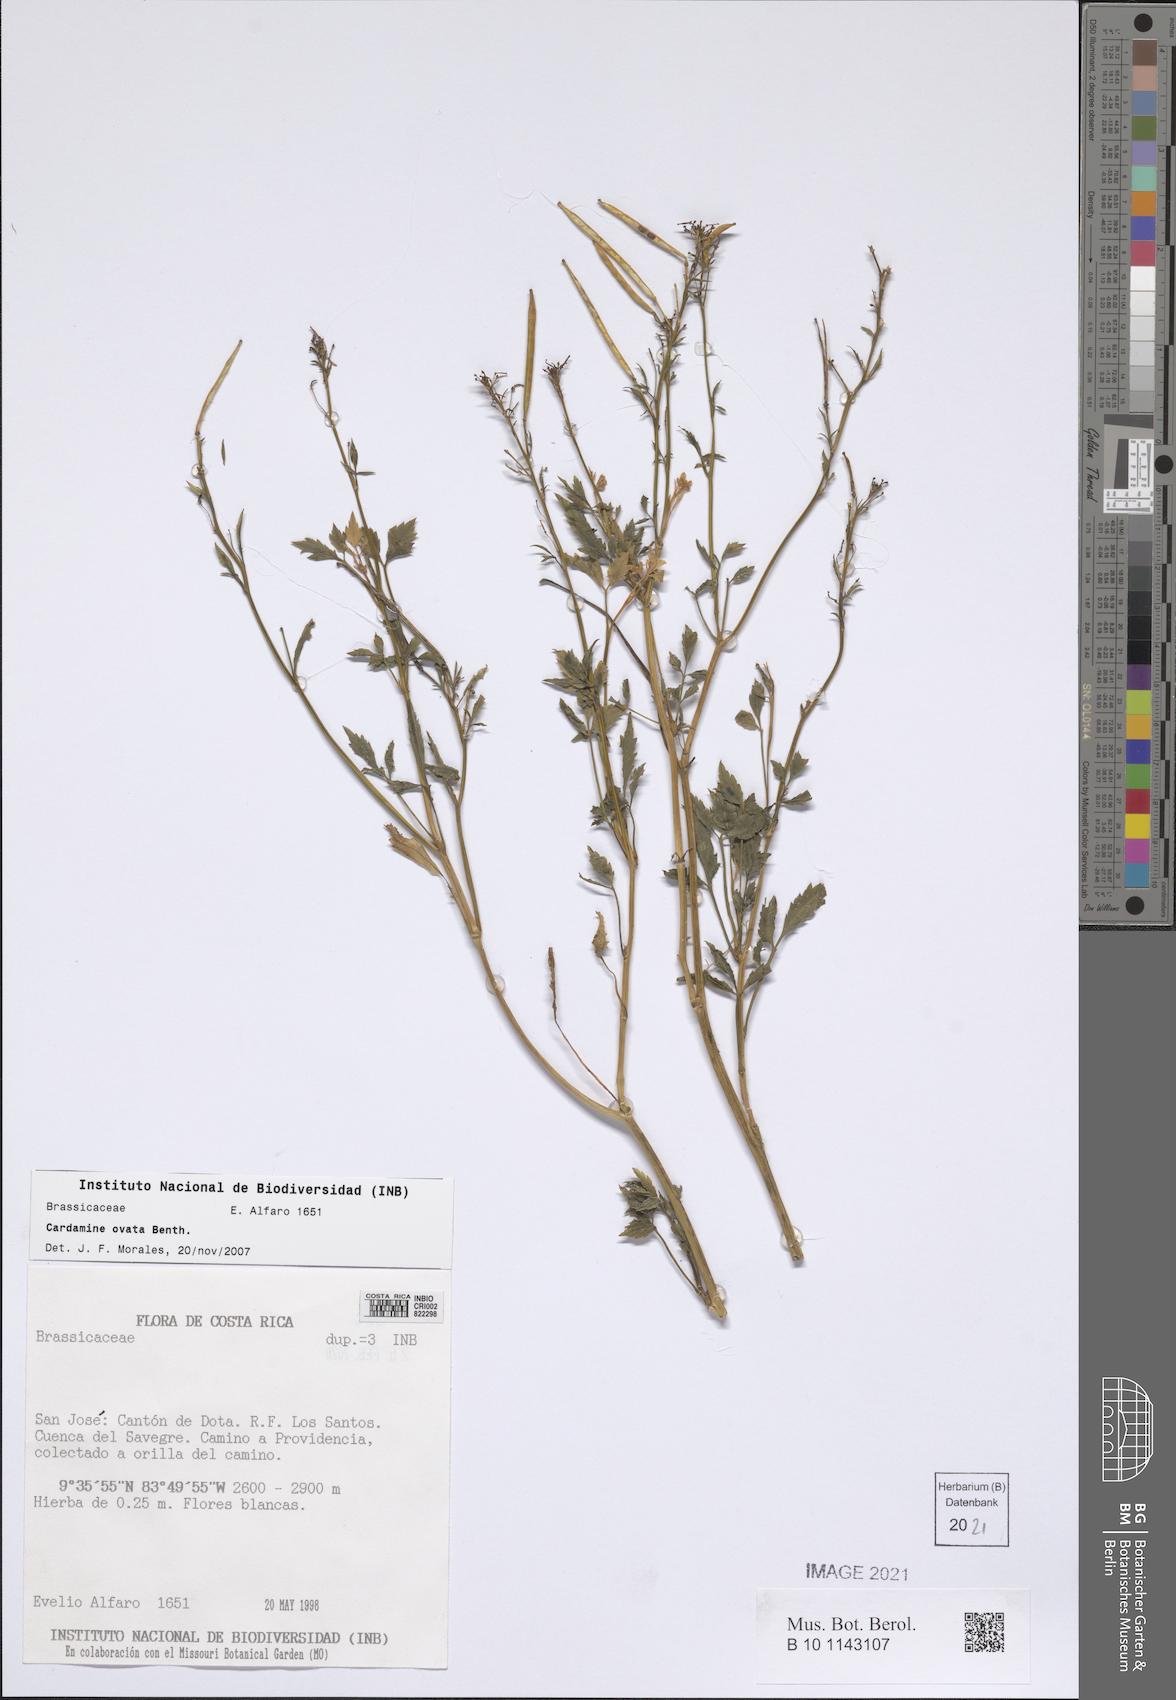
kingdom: Plantae
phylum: Tracheophyta
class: Magnoliopsida
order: Brassicales
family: Brassicaceae
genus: Cardamine
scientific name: Cardamine ovata
